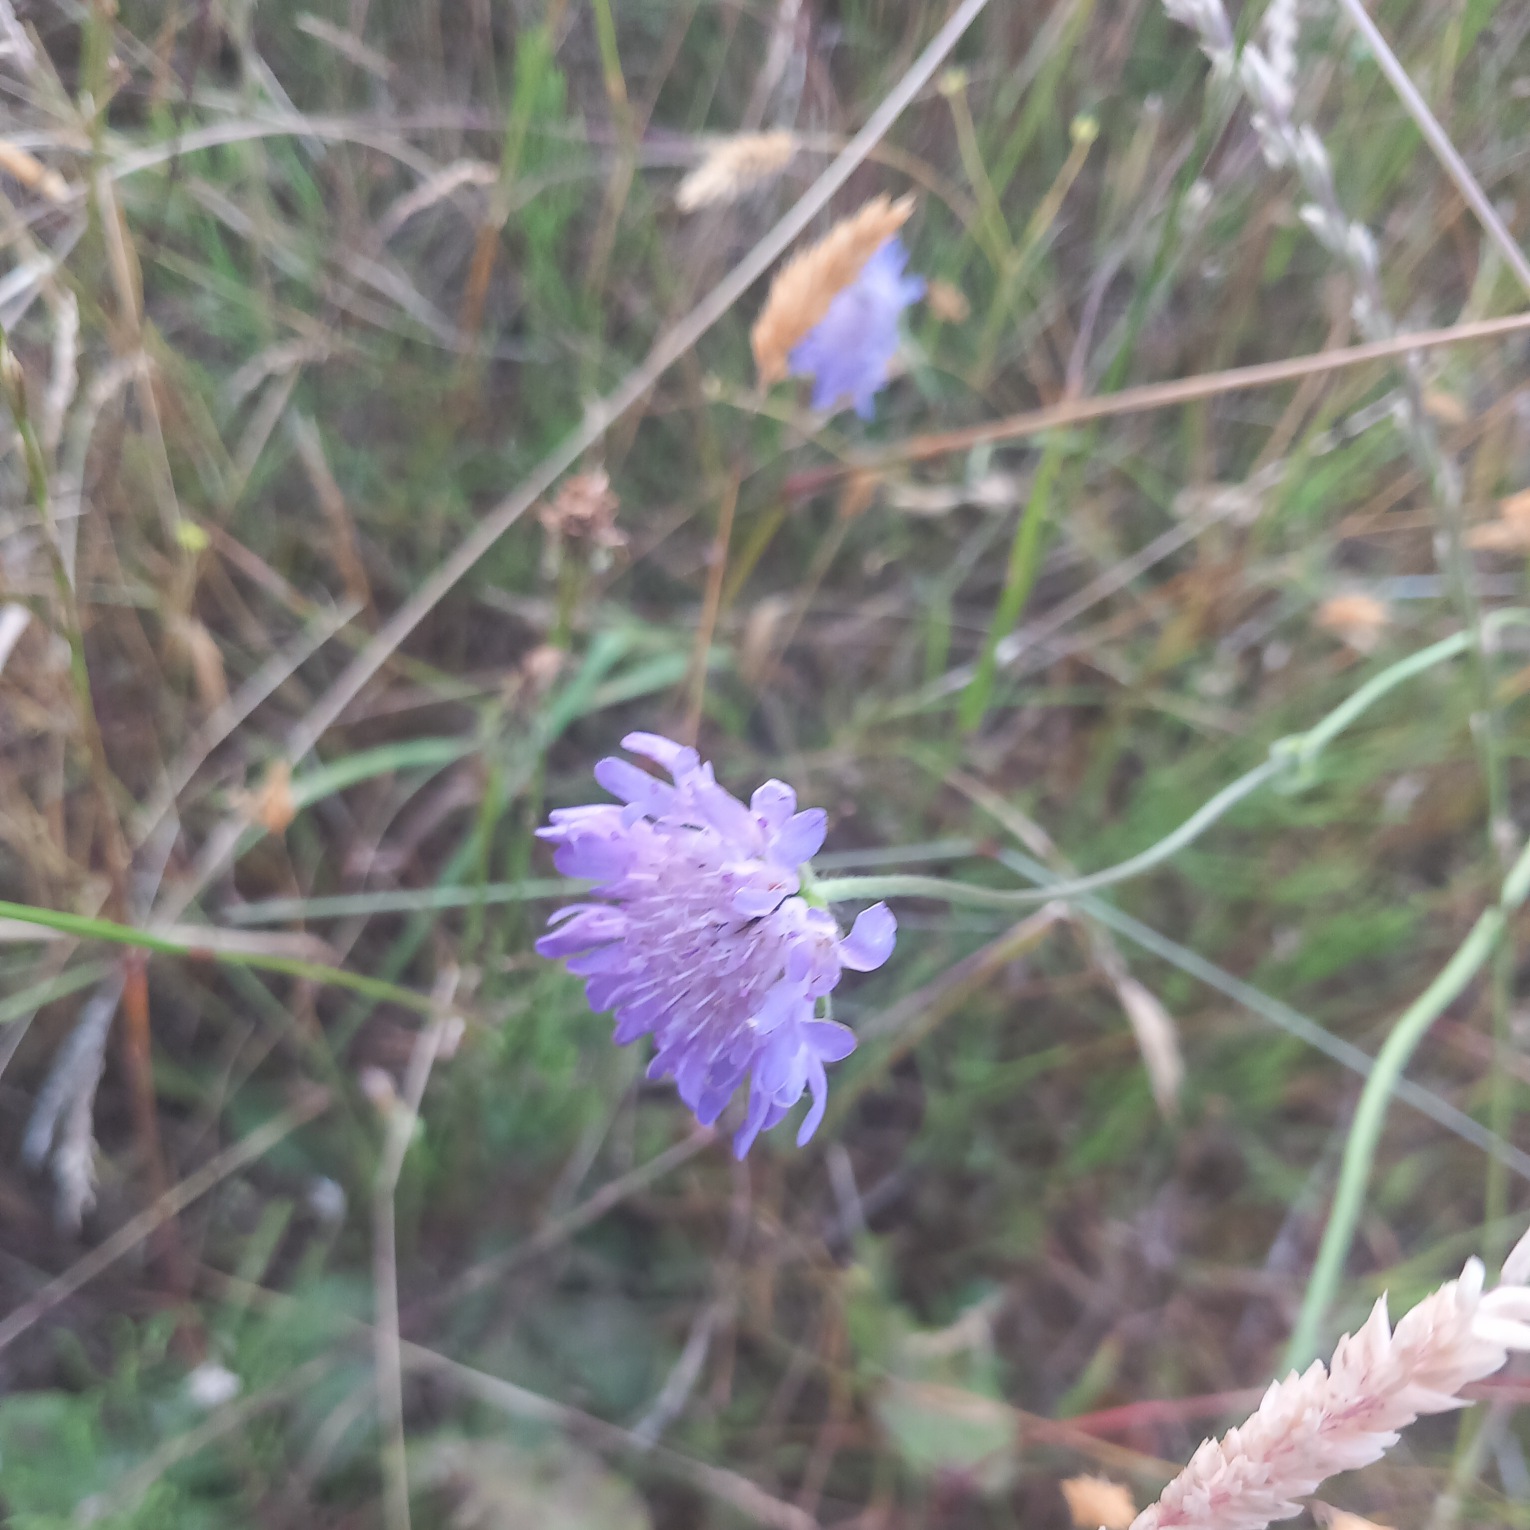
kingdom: Plantae
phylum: Tracheophyta
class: Magnoliopsida
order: Dipsacales
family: Caprifoliaceae
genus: Knautia
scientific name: Knautia arvensis
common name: Blåhat
